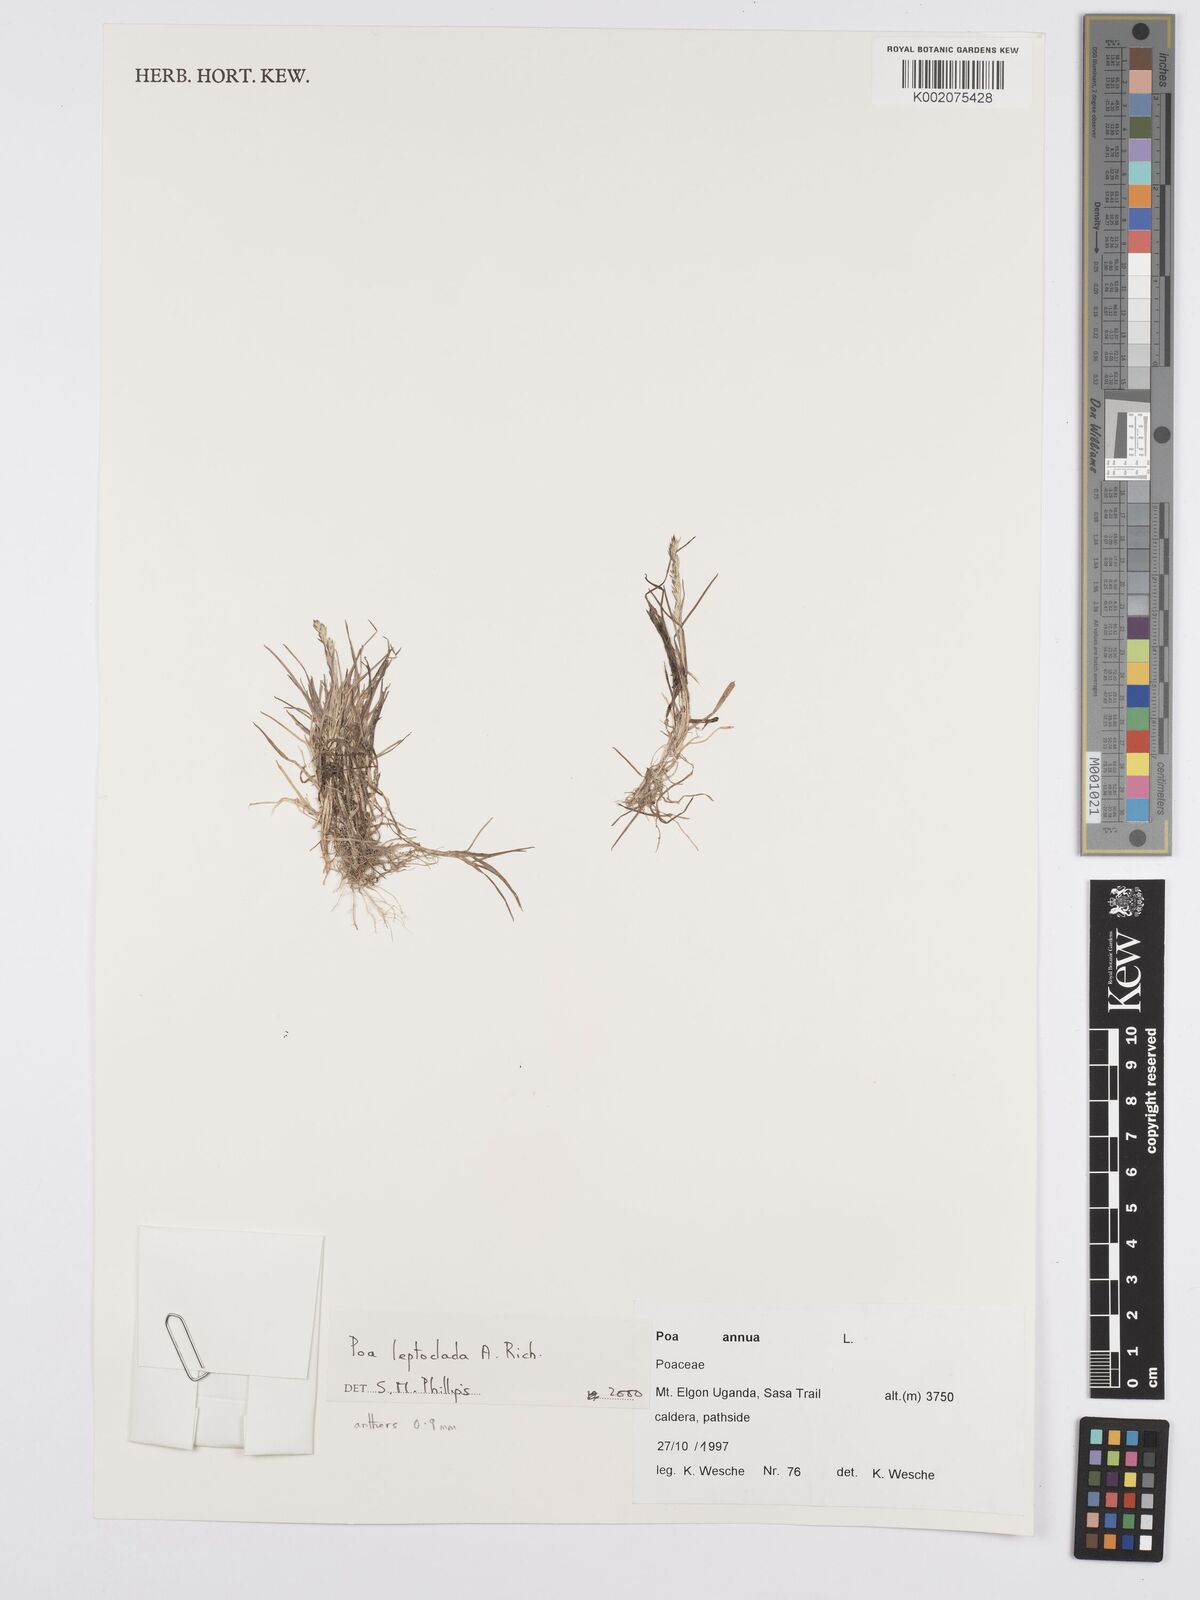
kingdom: Plantae
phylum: Tracheophyta
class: Liliopsida
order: Poales
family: Poaceae
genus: Poa
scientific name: Poa
